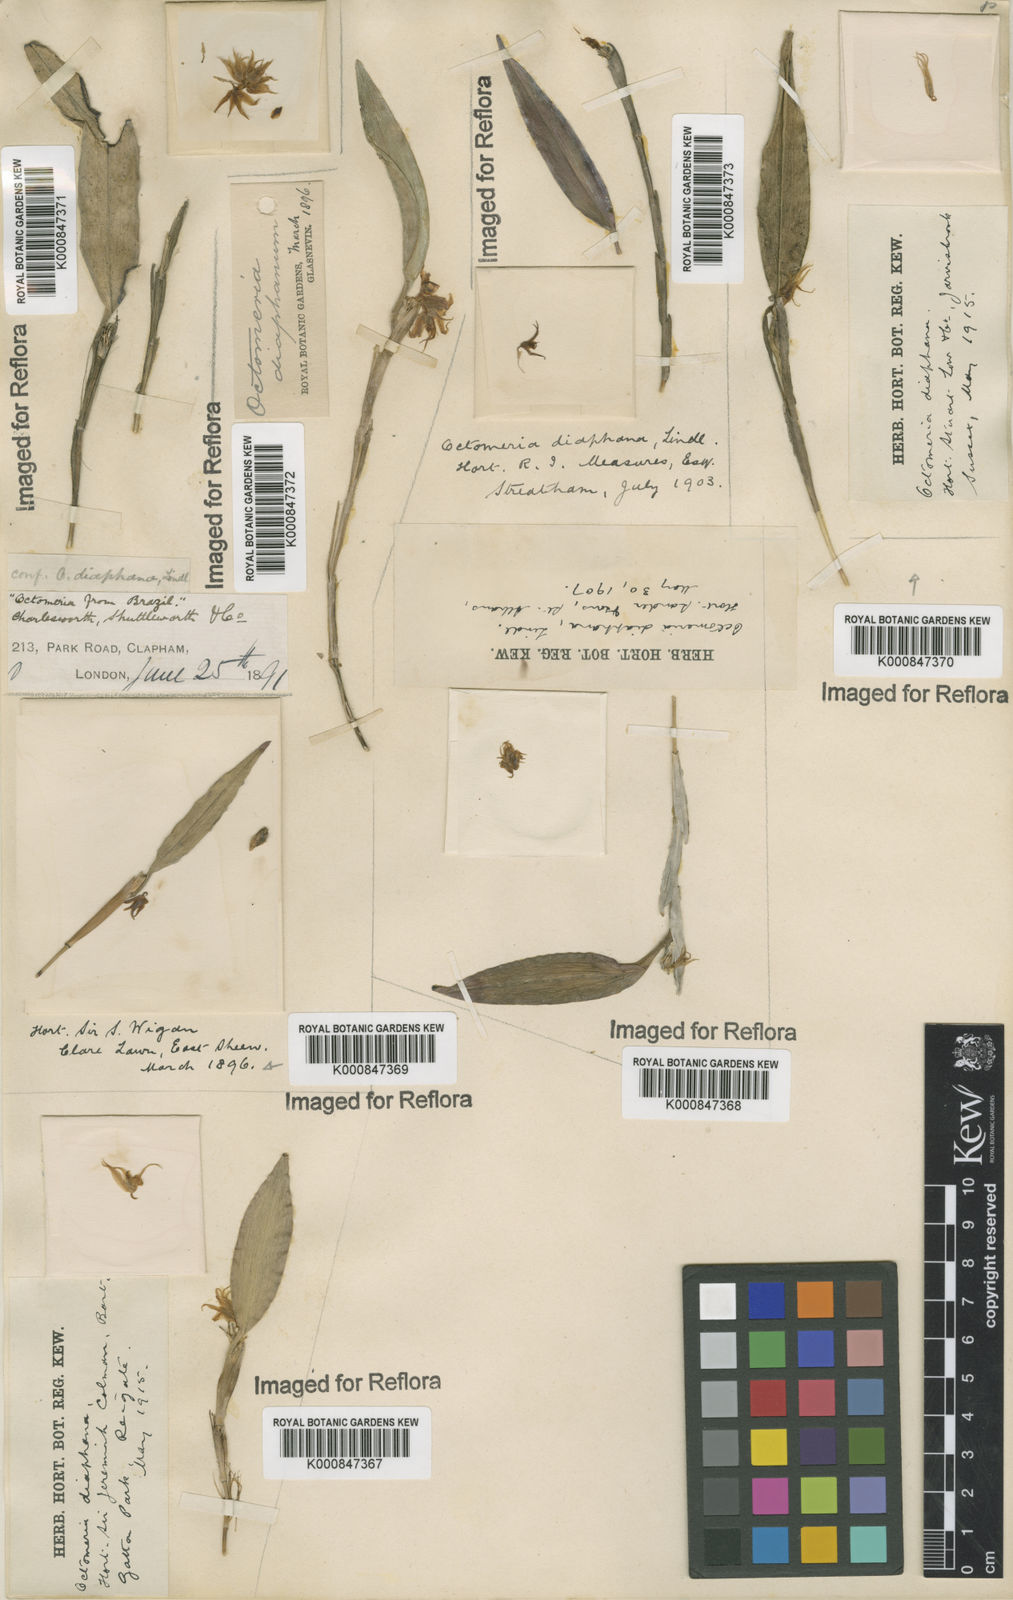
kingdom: Plantae
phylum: Tracheophyta
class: Liliopsida
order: Asparagales
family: Orchidaceae
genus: Octomeria
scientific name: Octomeria diaphana
